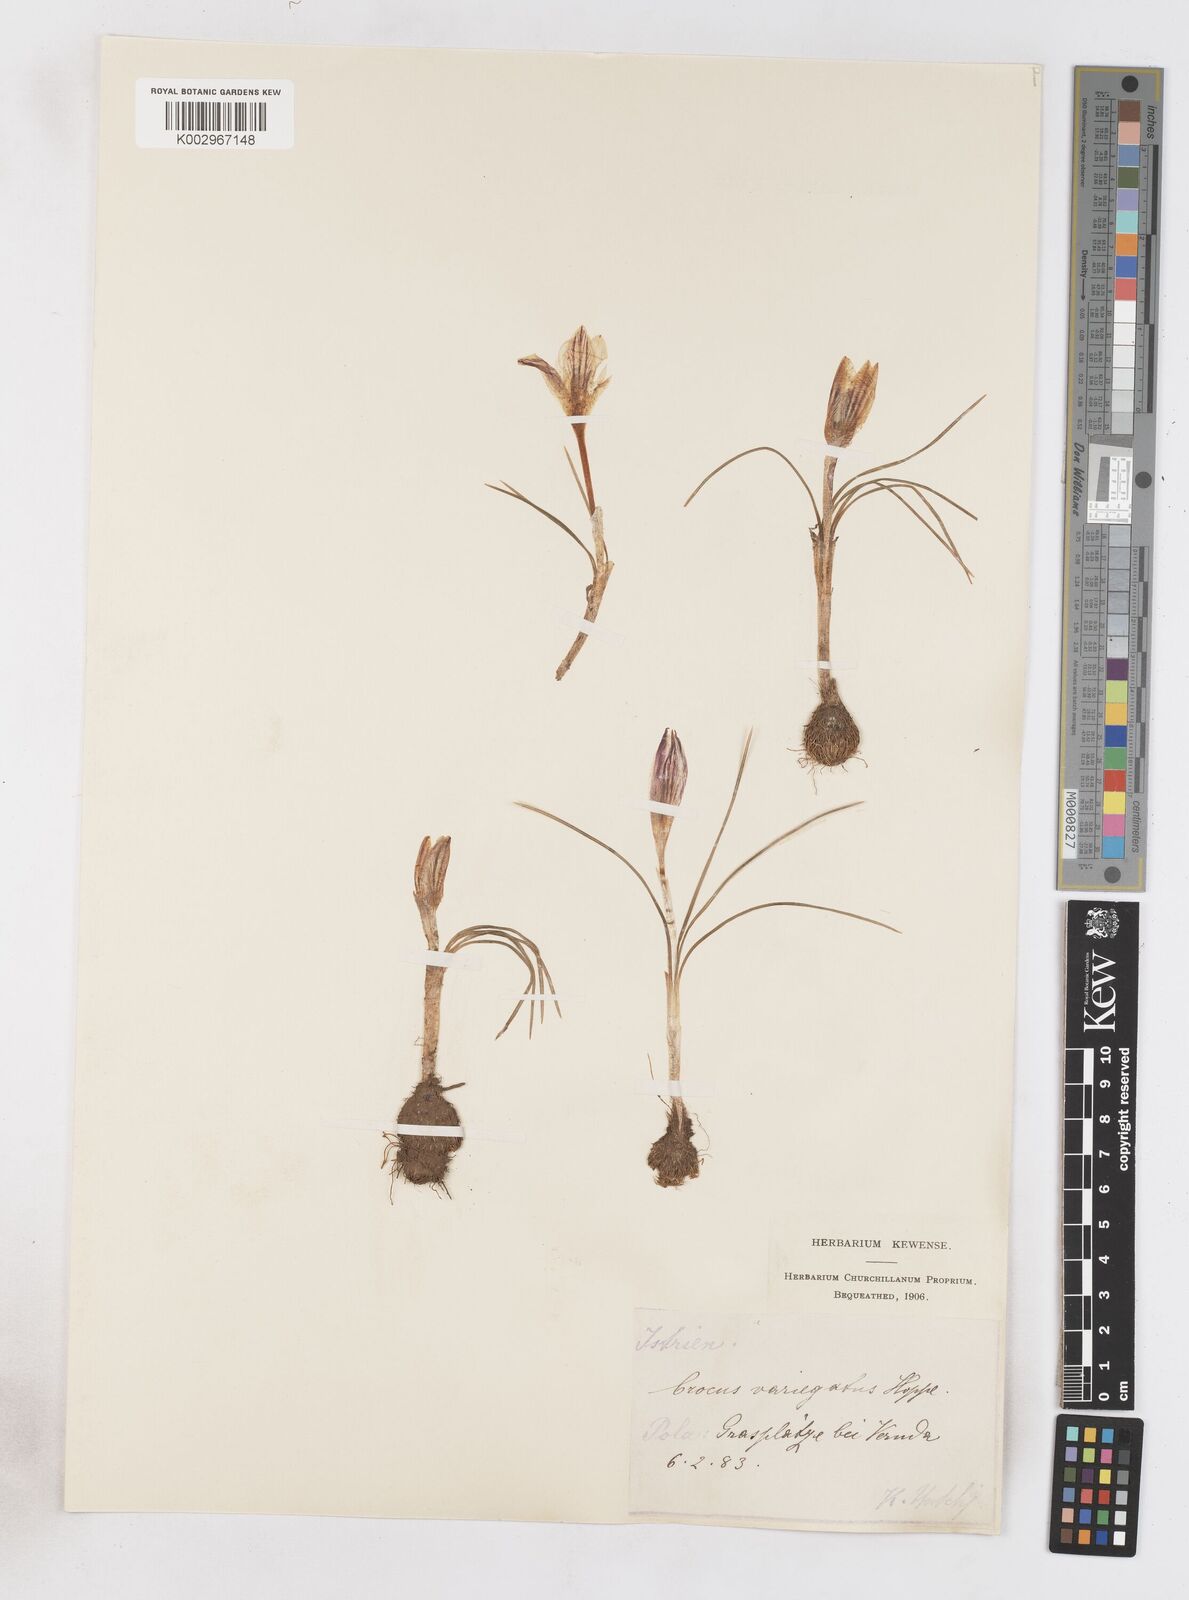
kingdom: Plantae
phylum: Tracheophyta
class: Liliopsida
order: Asparagales
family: Iridaceae
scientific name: Iridaceae
